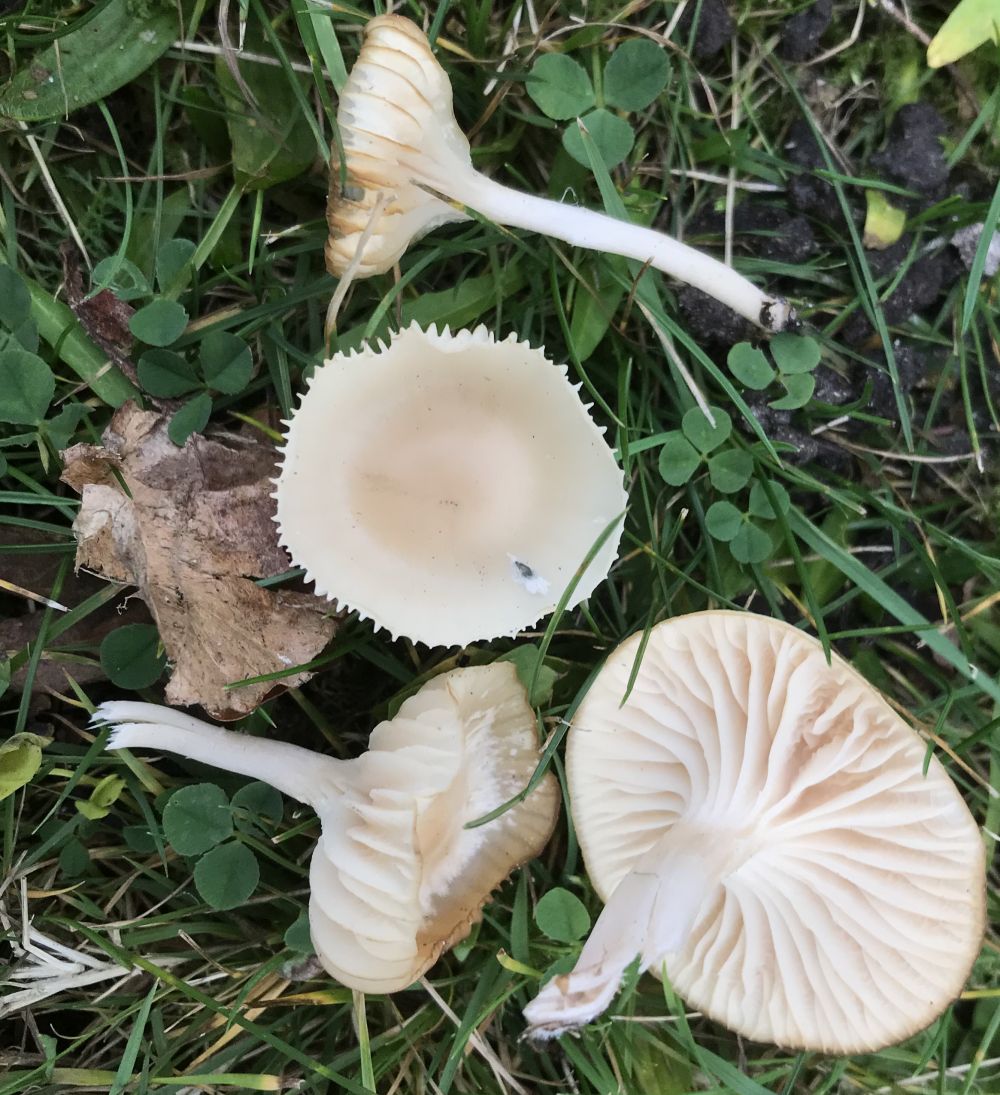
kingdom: Fungi
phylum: Basidiomycota
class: Agaricomycetes
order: Agaricales
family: Hygrophoraceae
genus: Cuphophyllus
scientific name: Cuphophyllus
